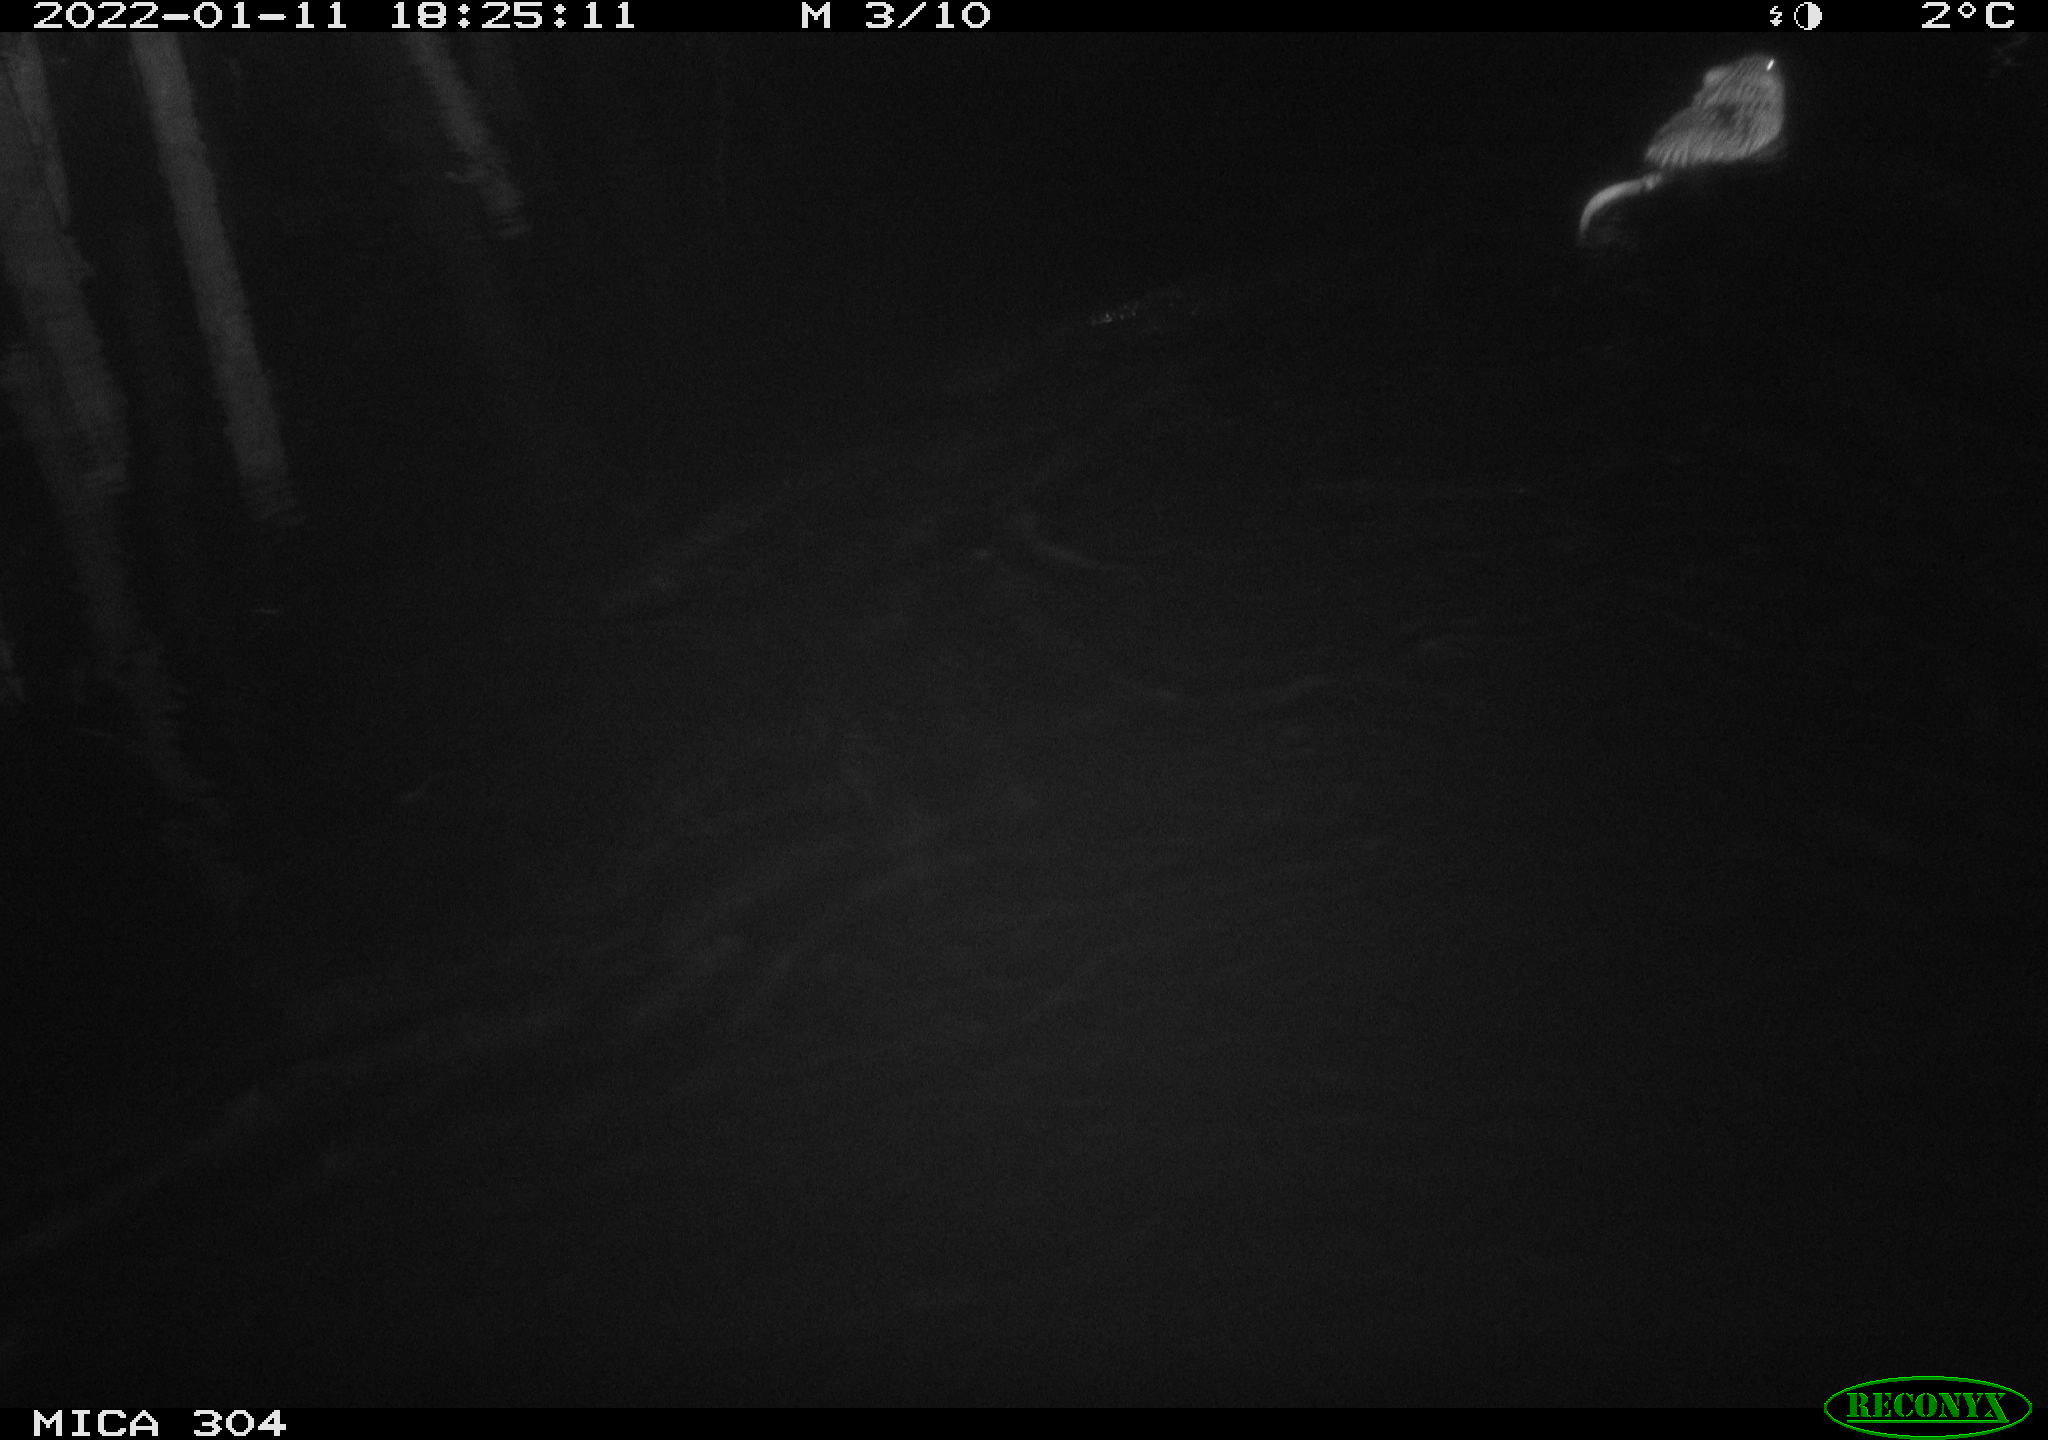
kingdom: Animalia
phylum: Chordata
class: Mammalia
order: Rodentia
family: Cricetidae
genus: Ondatra
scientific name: Ondatra zibethicus
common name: Muskrat
